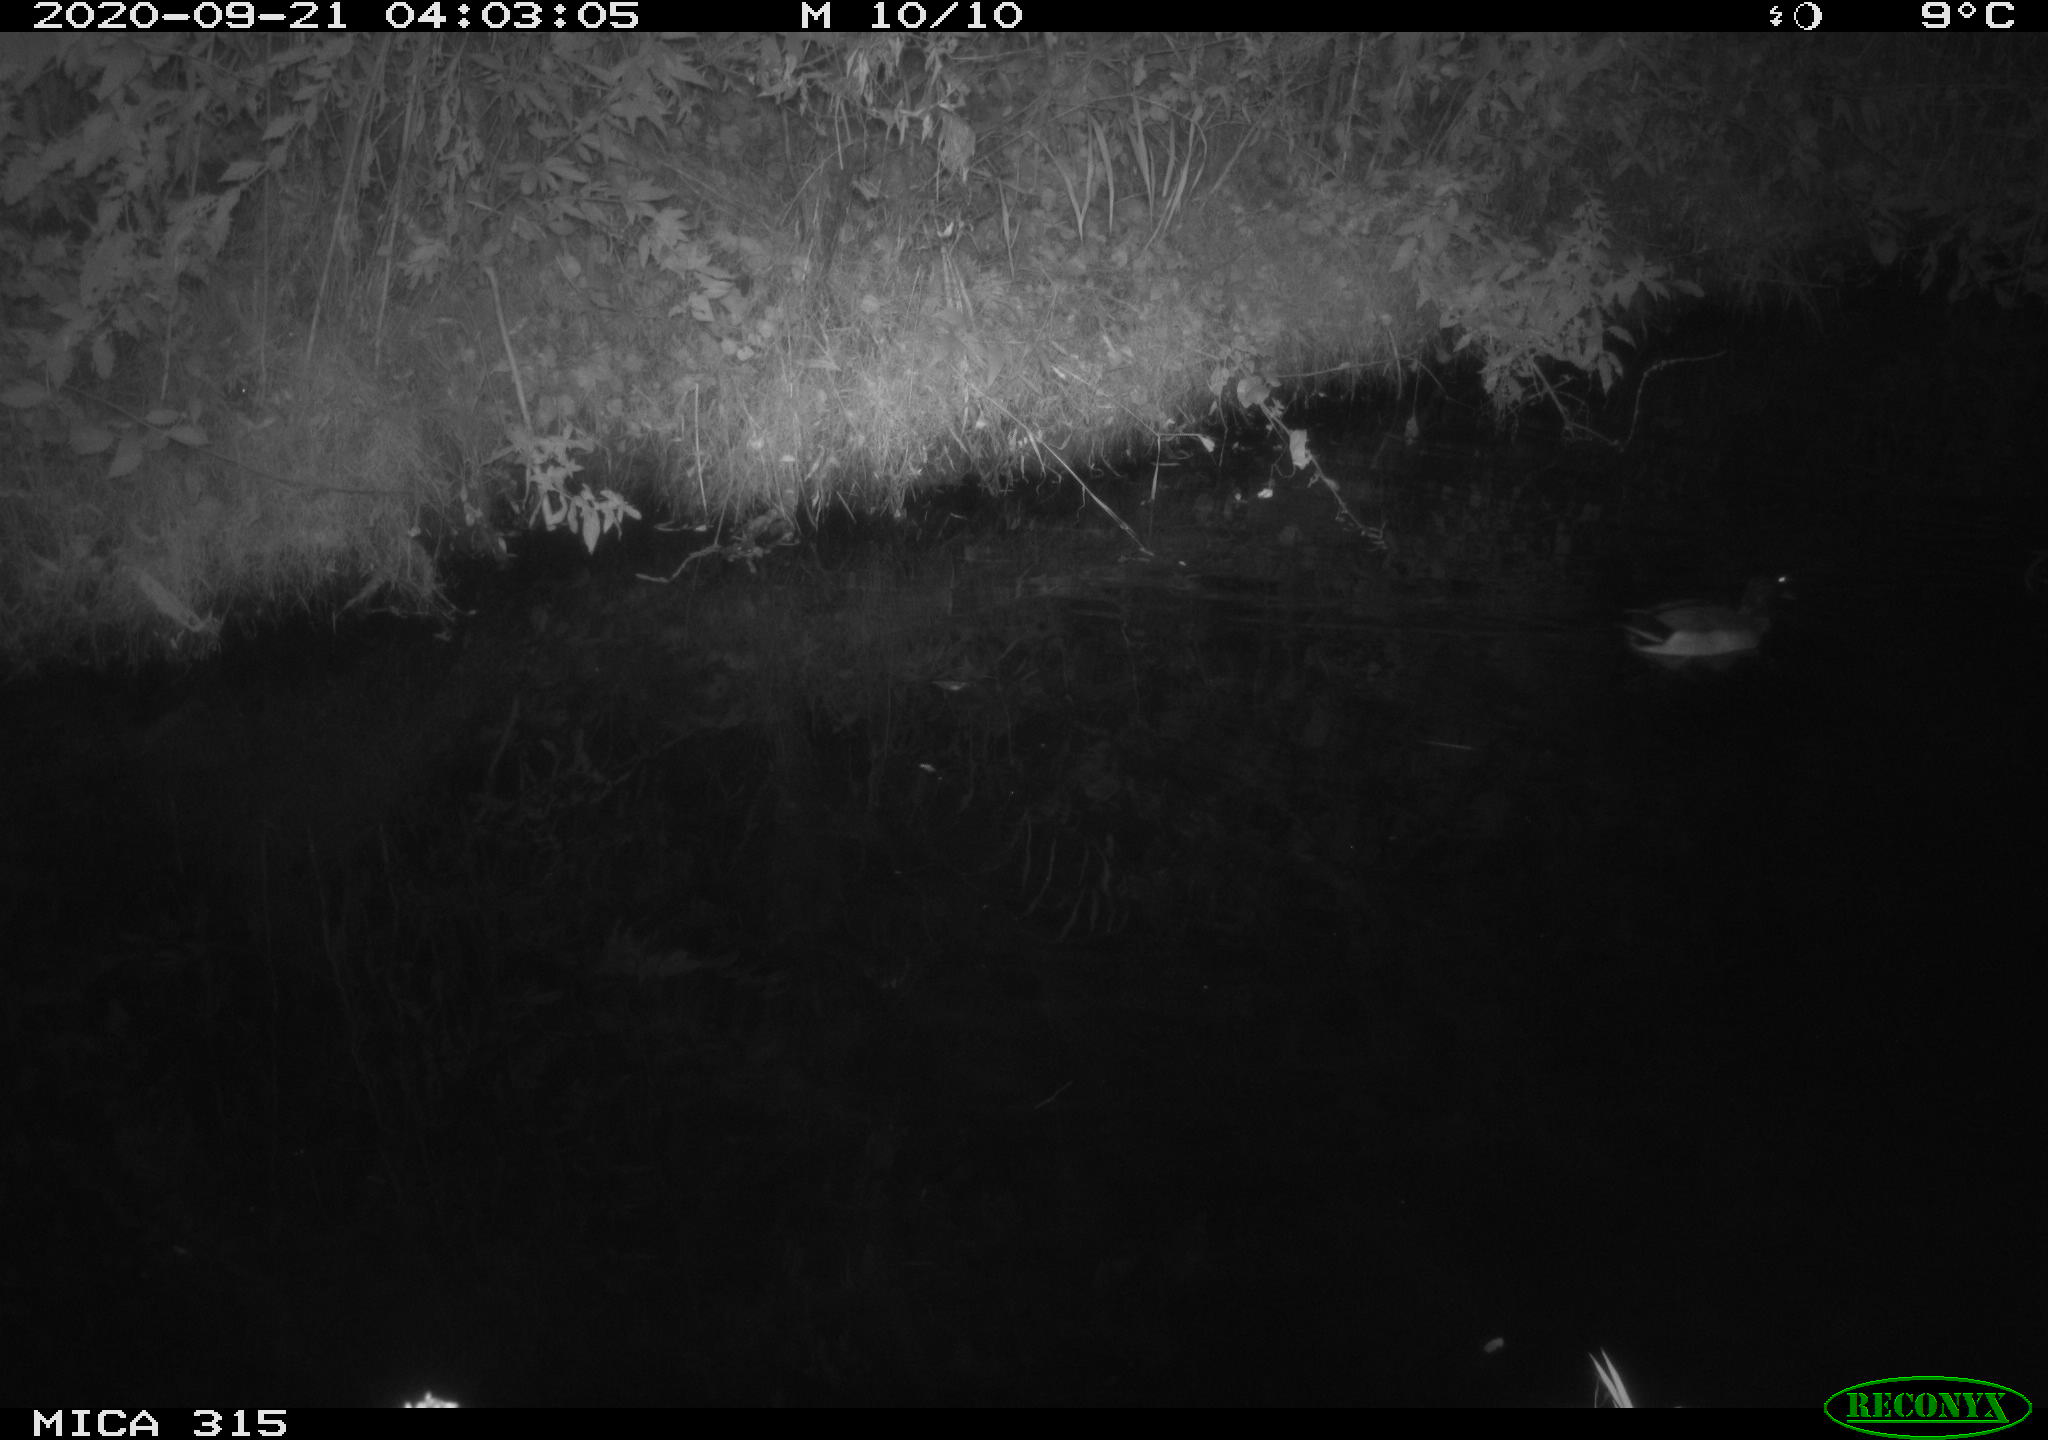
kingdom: Animalia
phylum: Chordata
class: Aves
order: Anseriformes
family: Anatidae
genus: Anas
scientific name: Anas platyrhynchos
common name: Mallard
